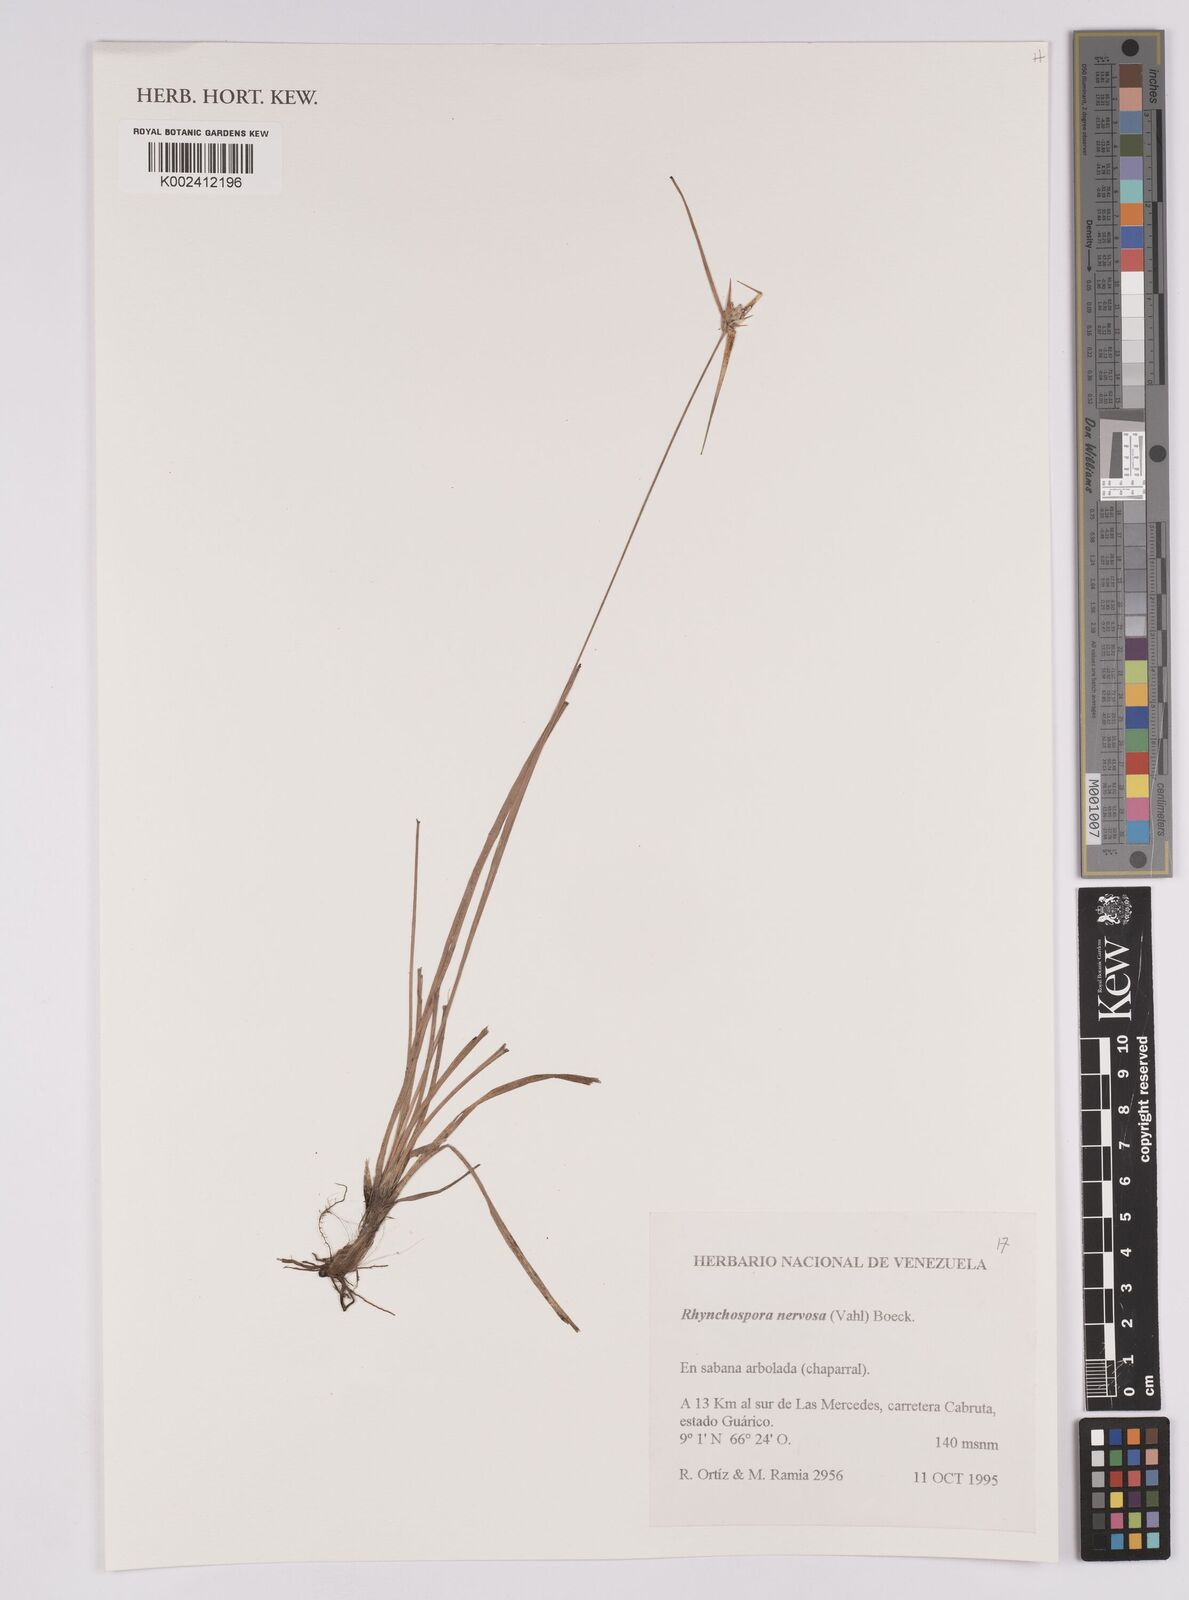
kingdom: Plantae
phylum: Tracheophyta
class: Liliopsida
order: Poales
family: Cyperaceae
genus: Rhynchospora
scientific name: Rhynchospora curvula
